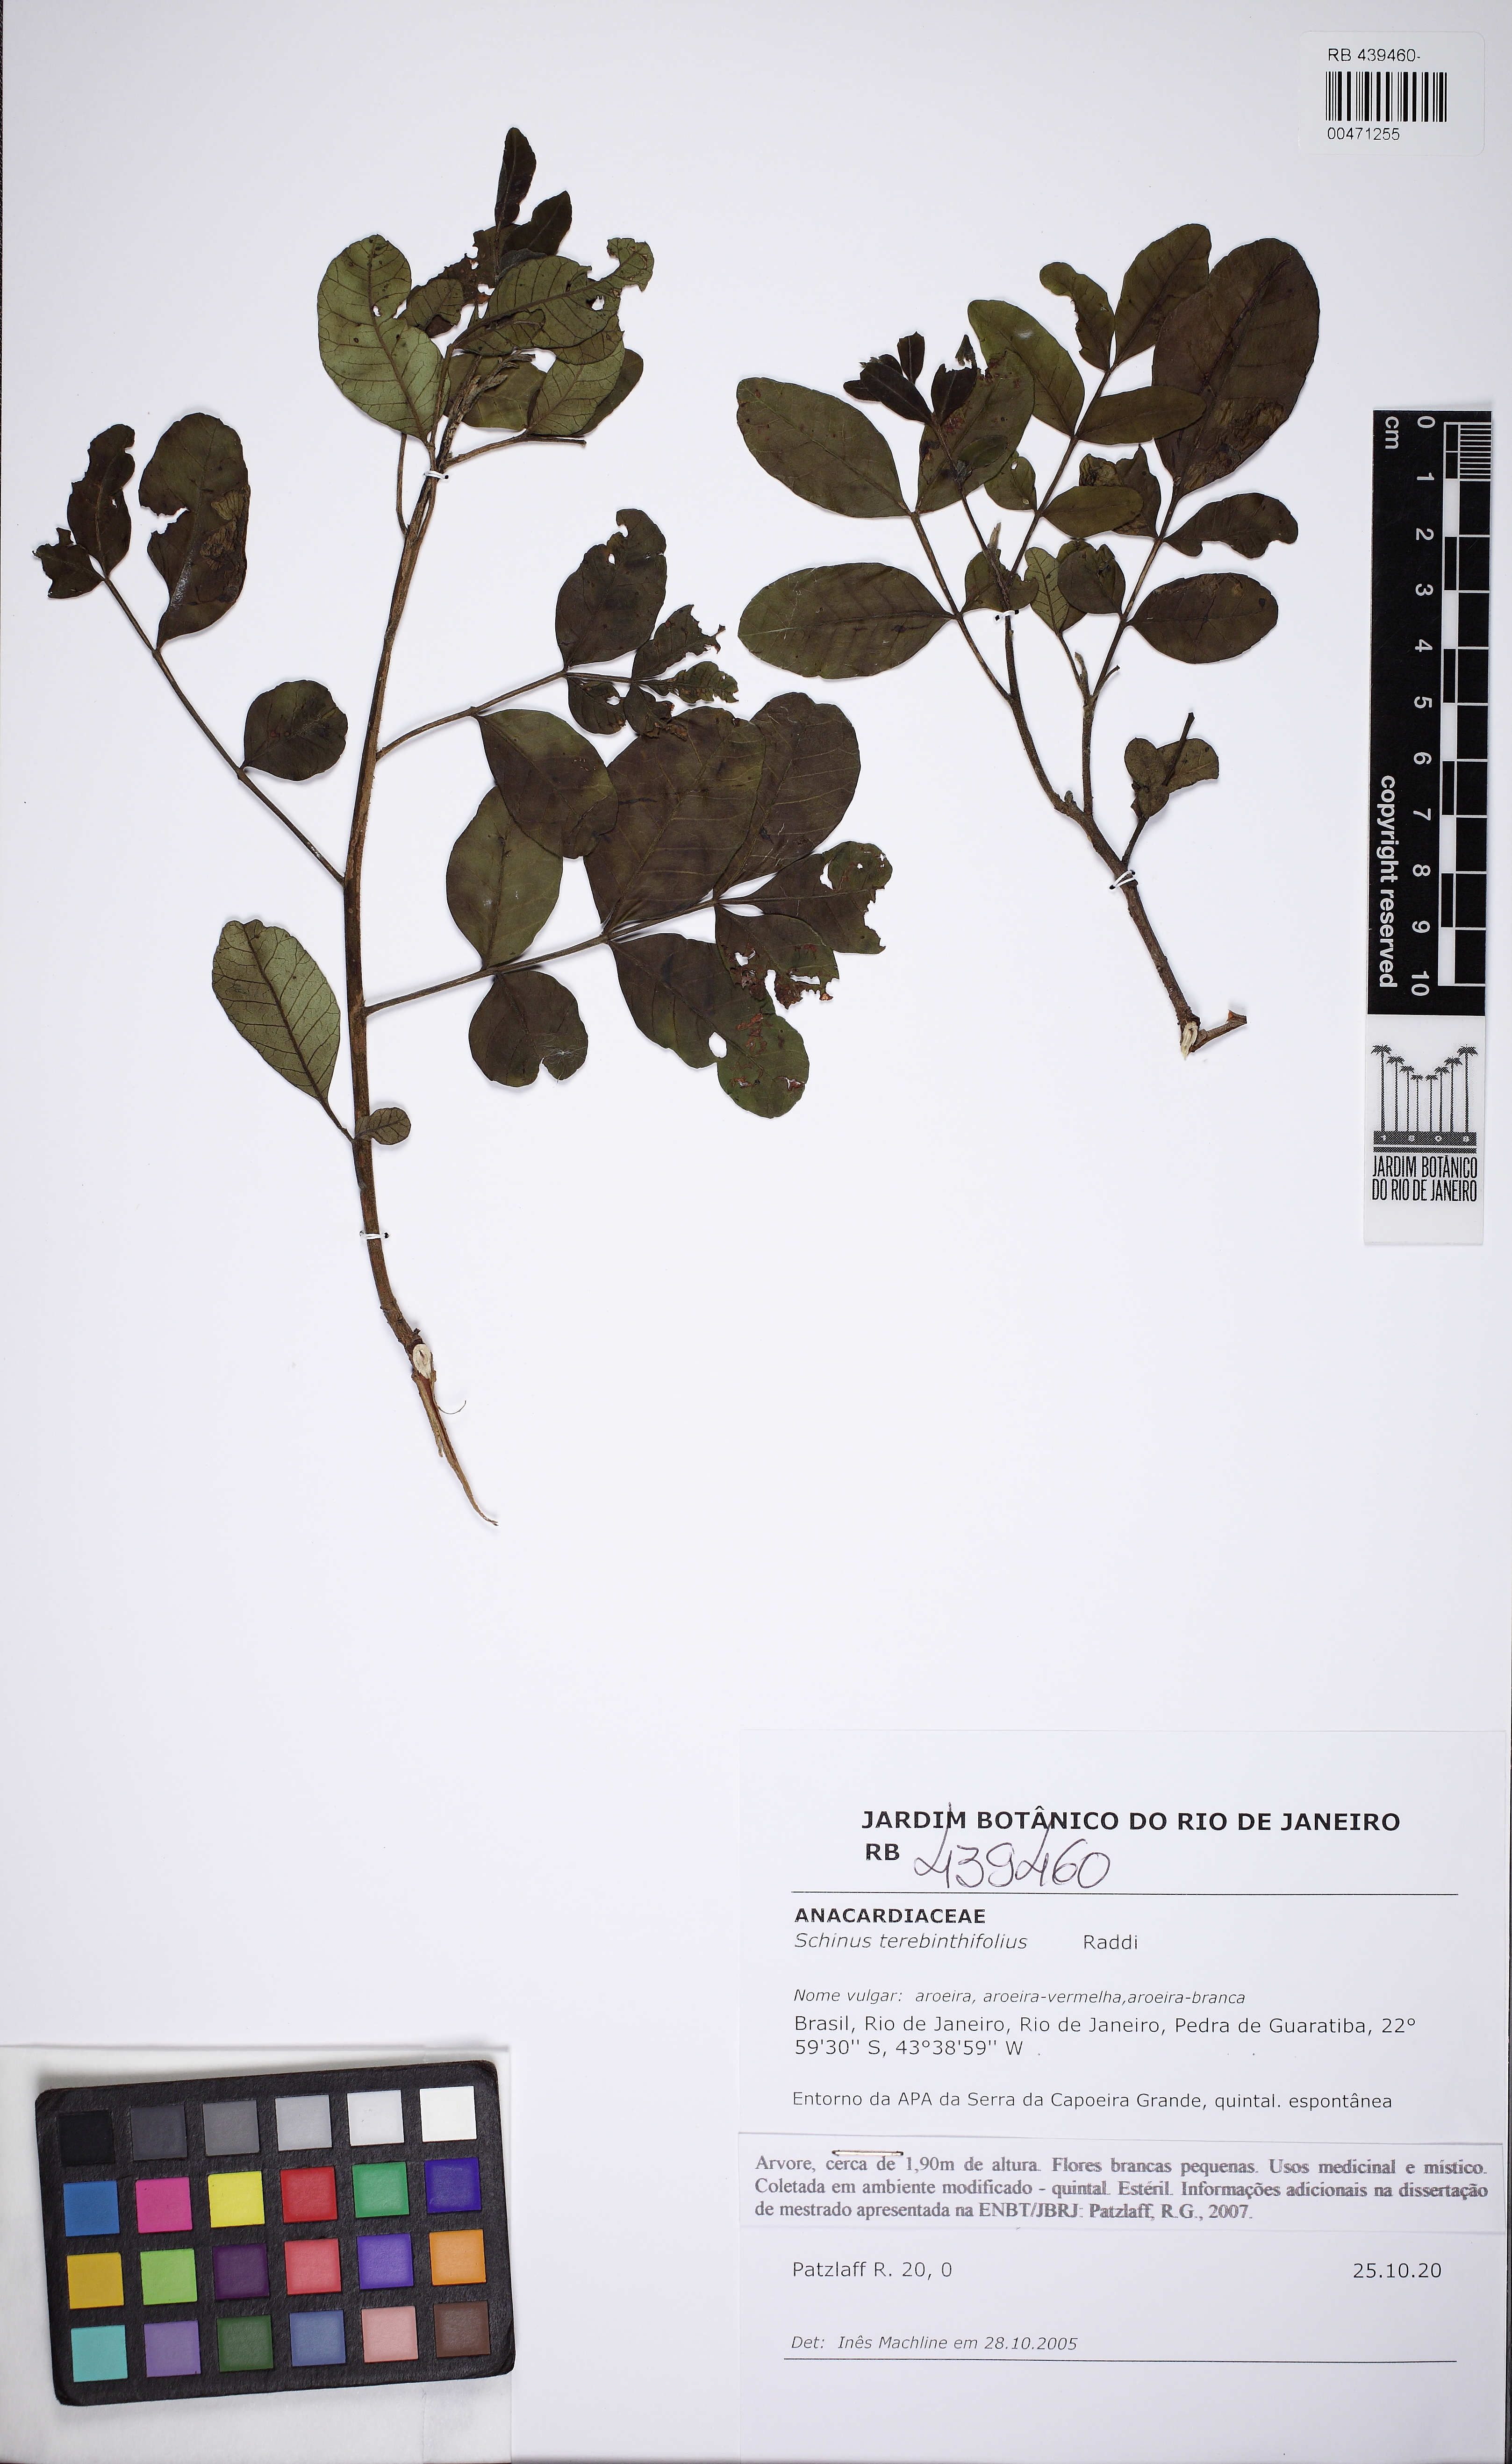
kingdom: Plantae
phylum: Tracheophyta
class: Magnoliopsida
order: Sapindales
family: Anacardiaceae
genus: Schinus
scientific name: Schinus terebinthifolia
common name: Brazilian peppertree
